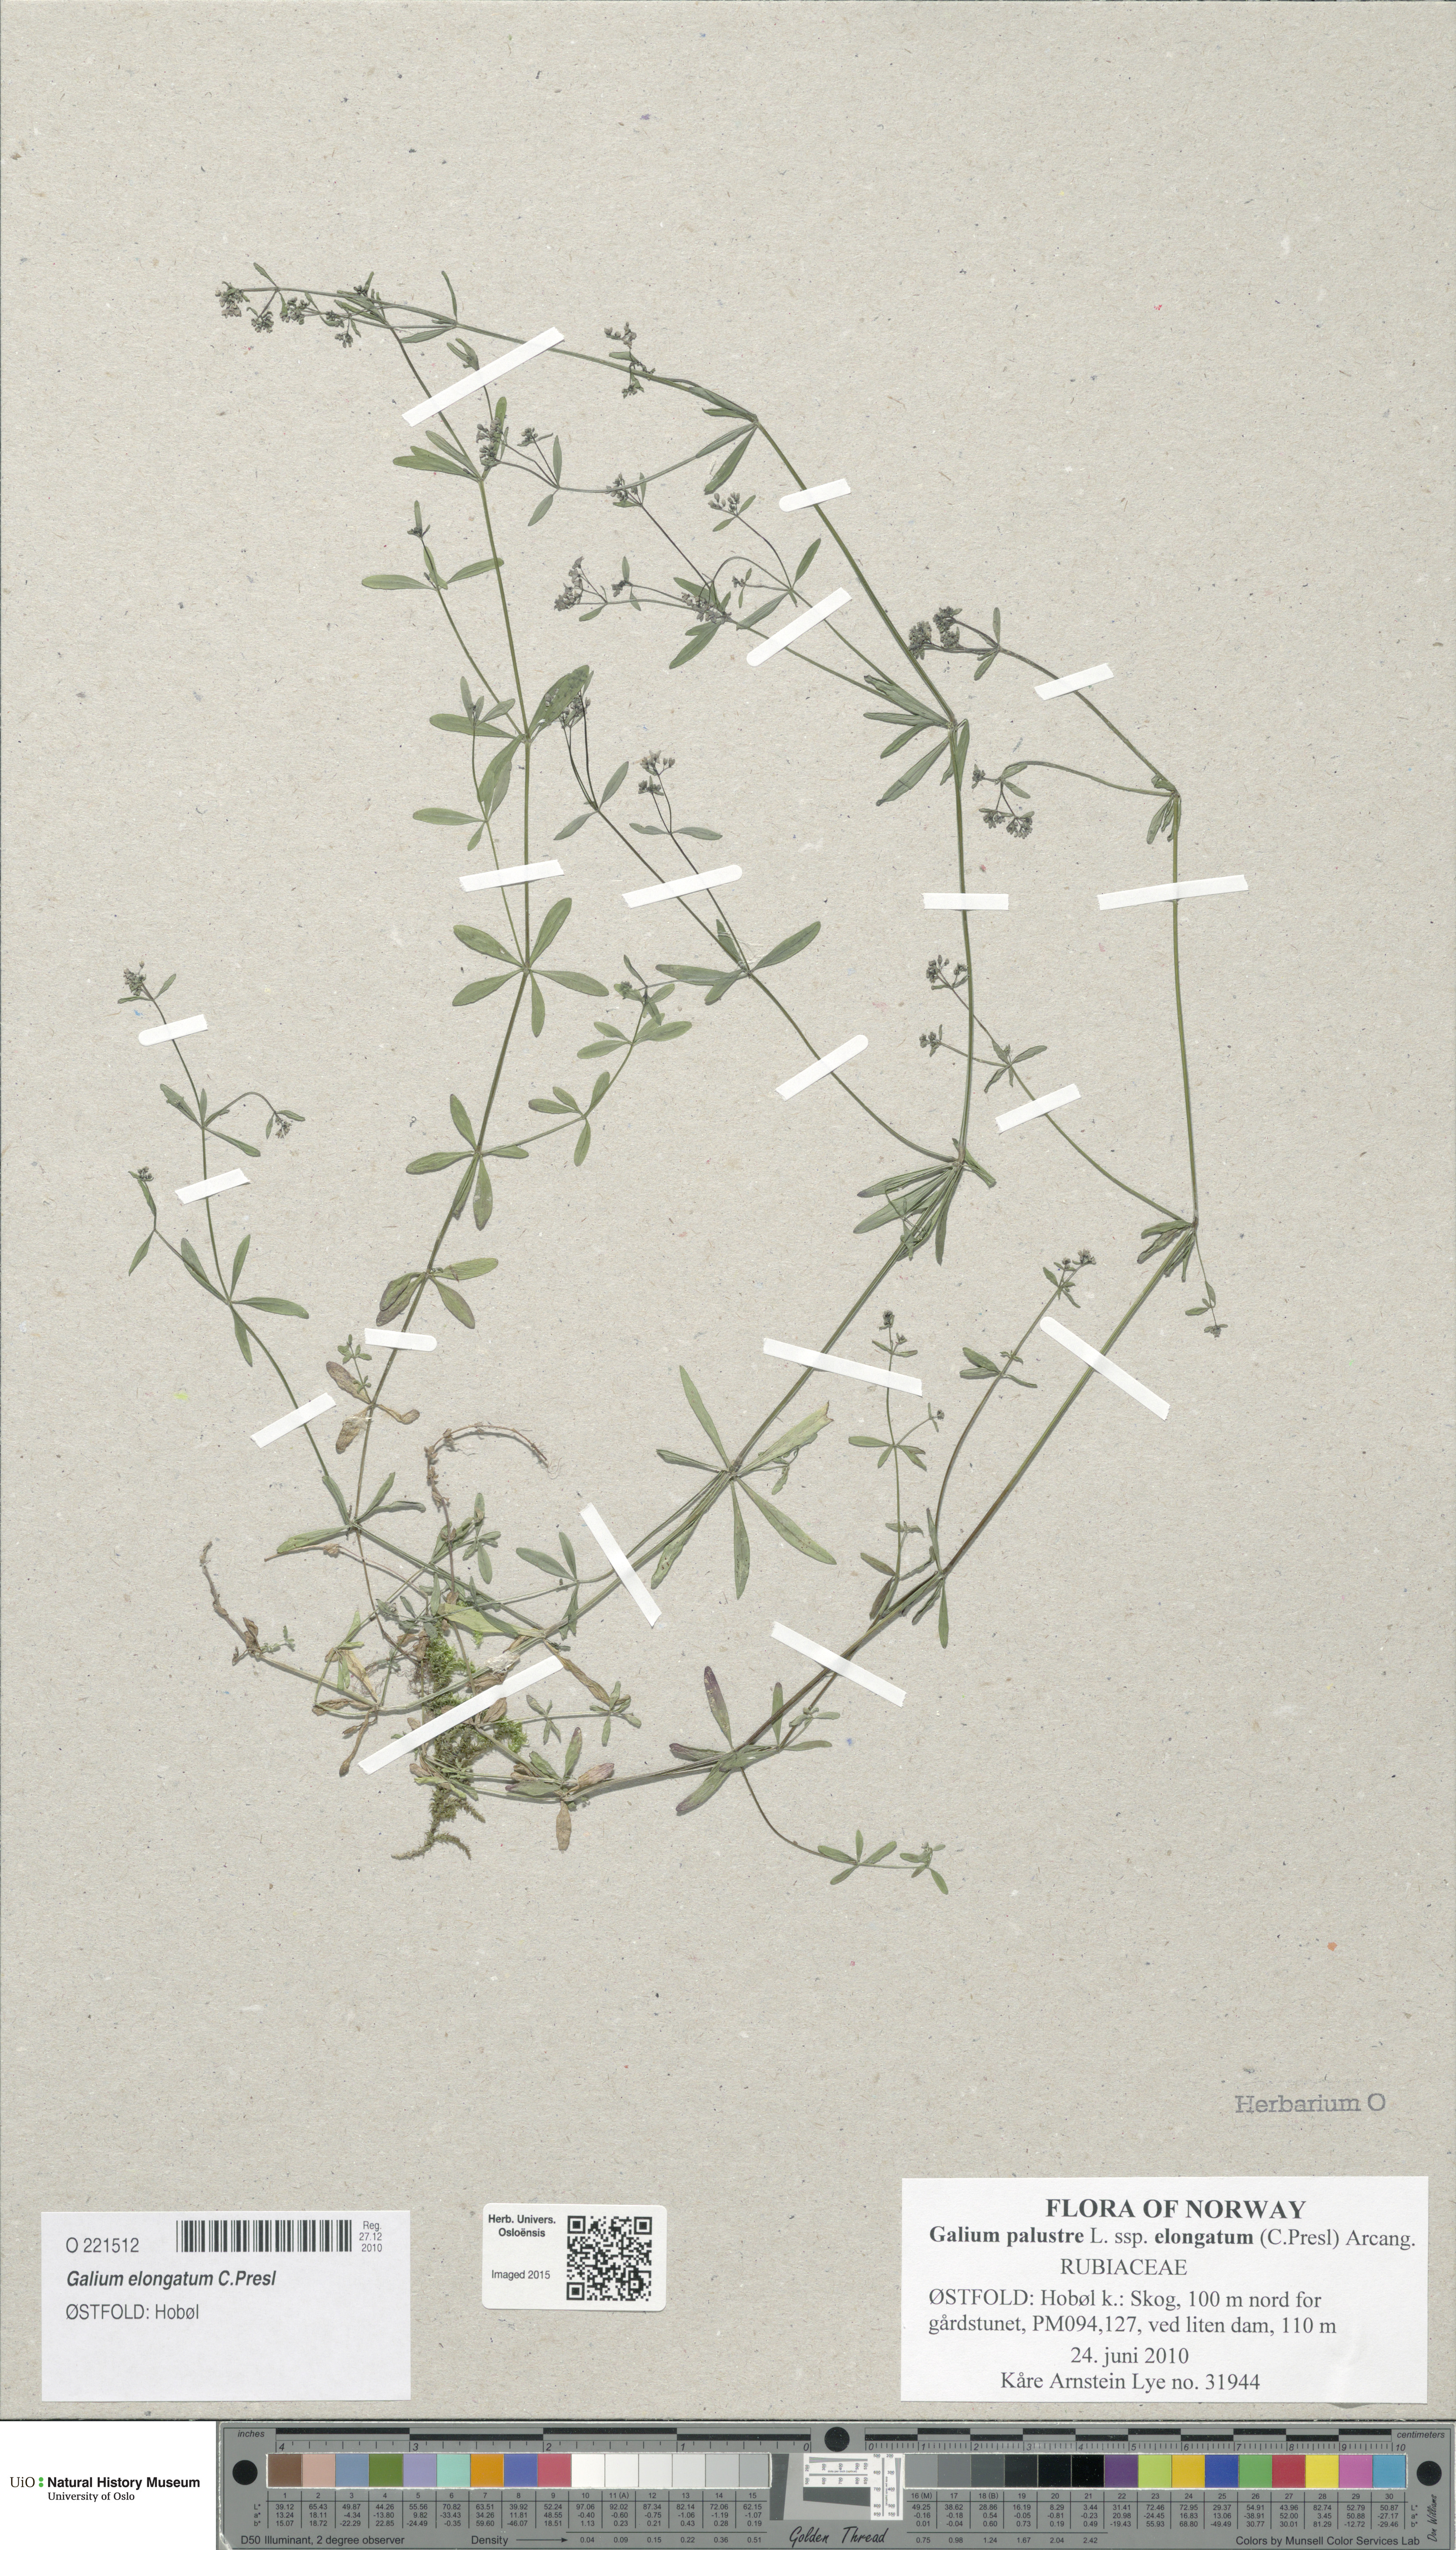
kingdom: Plantae
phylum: Tracheophyta
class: Magnoliopsida
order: Gentianales
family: Rubiaceae
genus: Galium
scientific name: Galium elongatum
